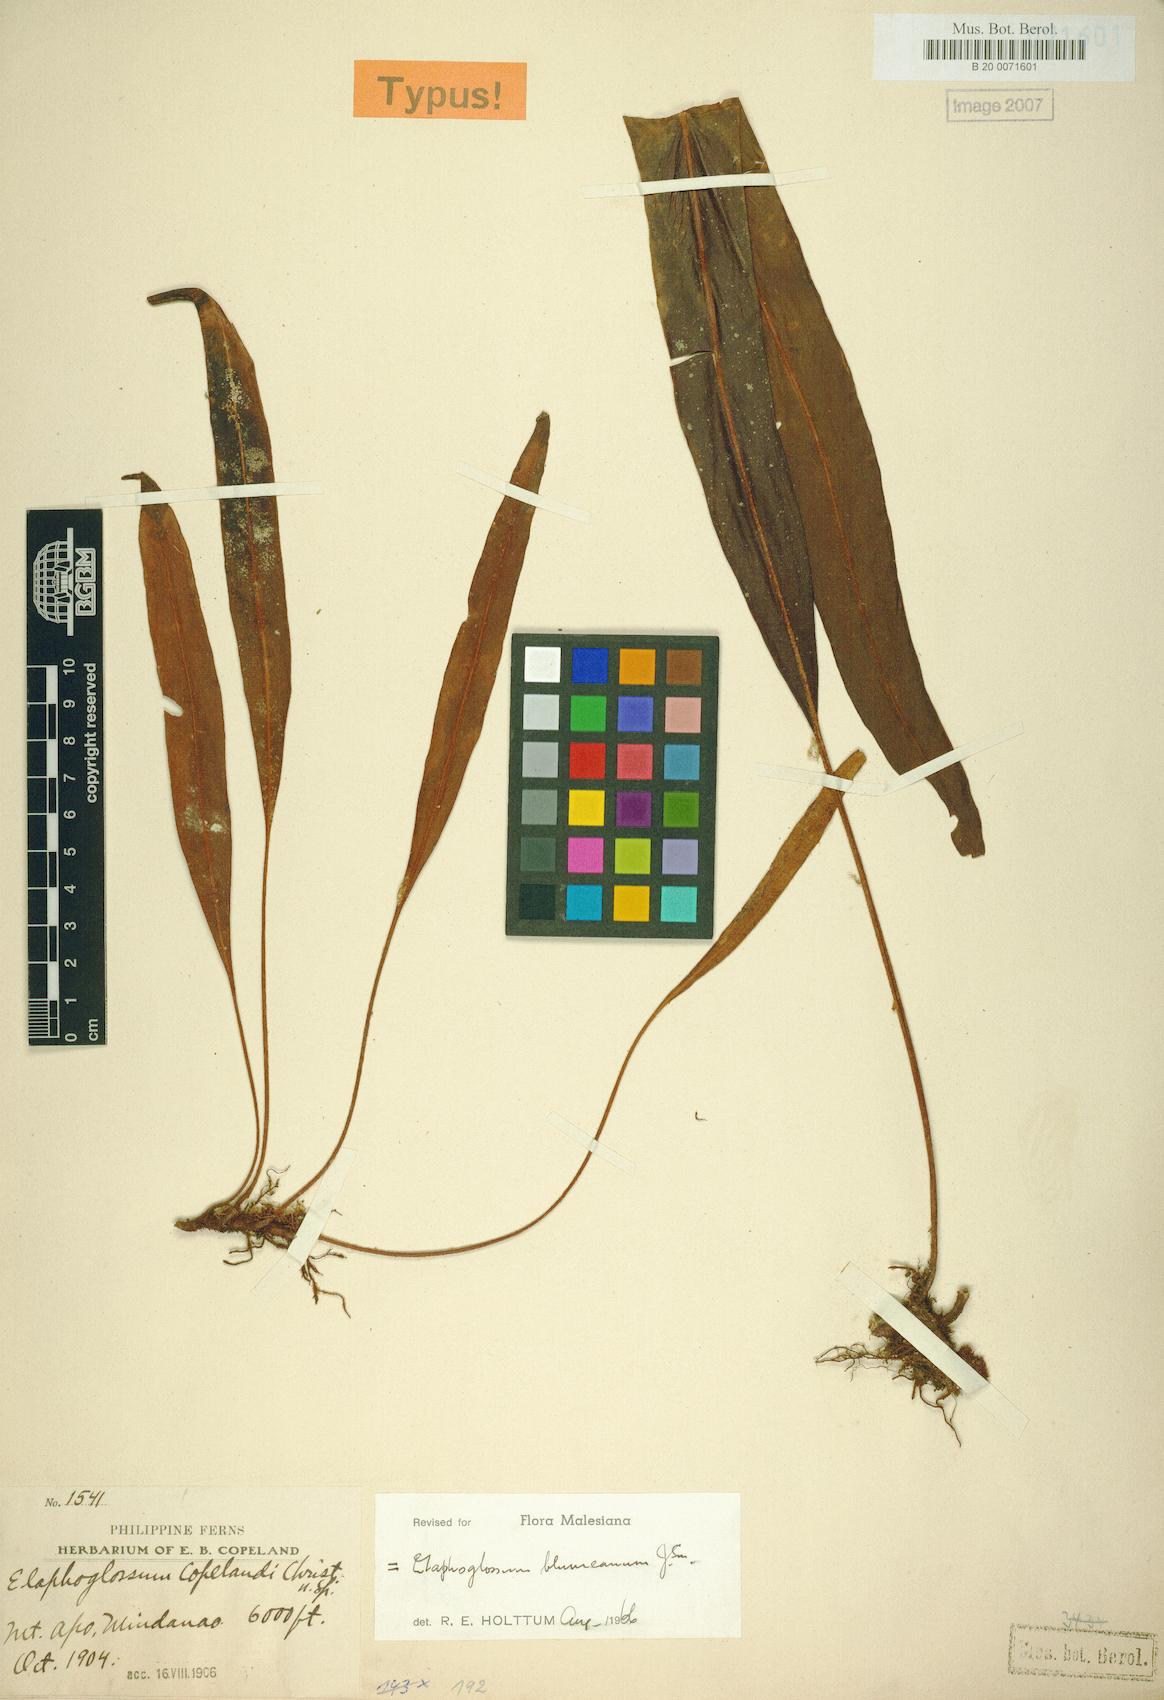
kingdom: Plantae
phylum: Tracheophyta
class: Polypodiopsida
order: Polypodiales
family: Dryopteridaceae
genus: Elaphoglossum
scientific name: Elaphoglossum petiolatum
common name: Graceful tonguefern
